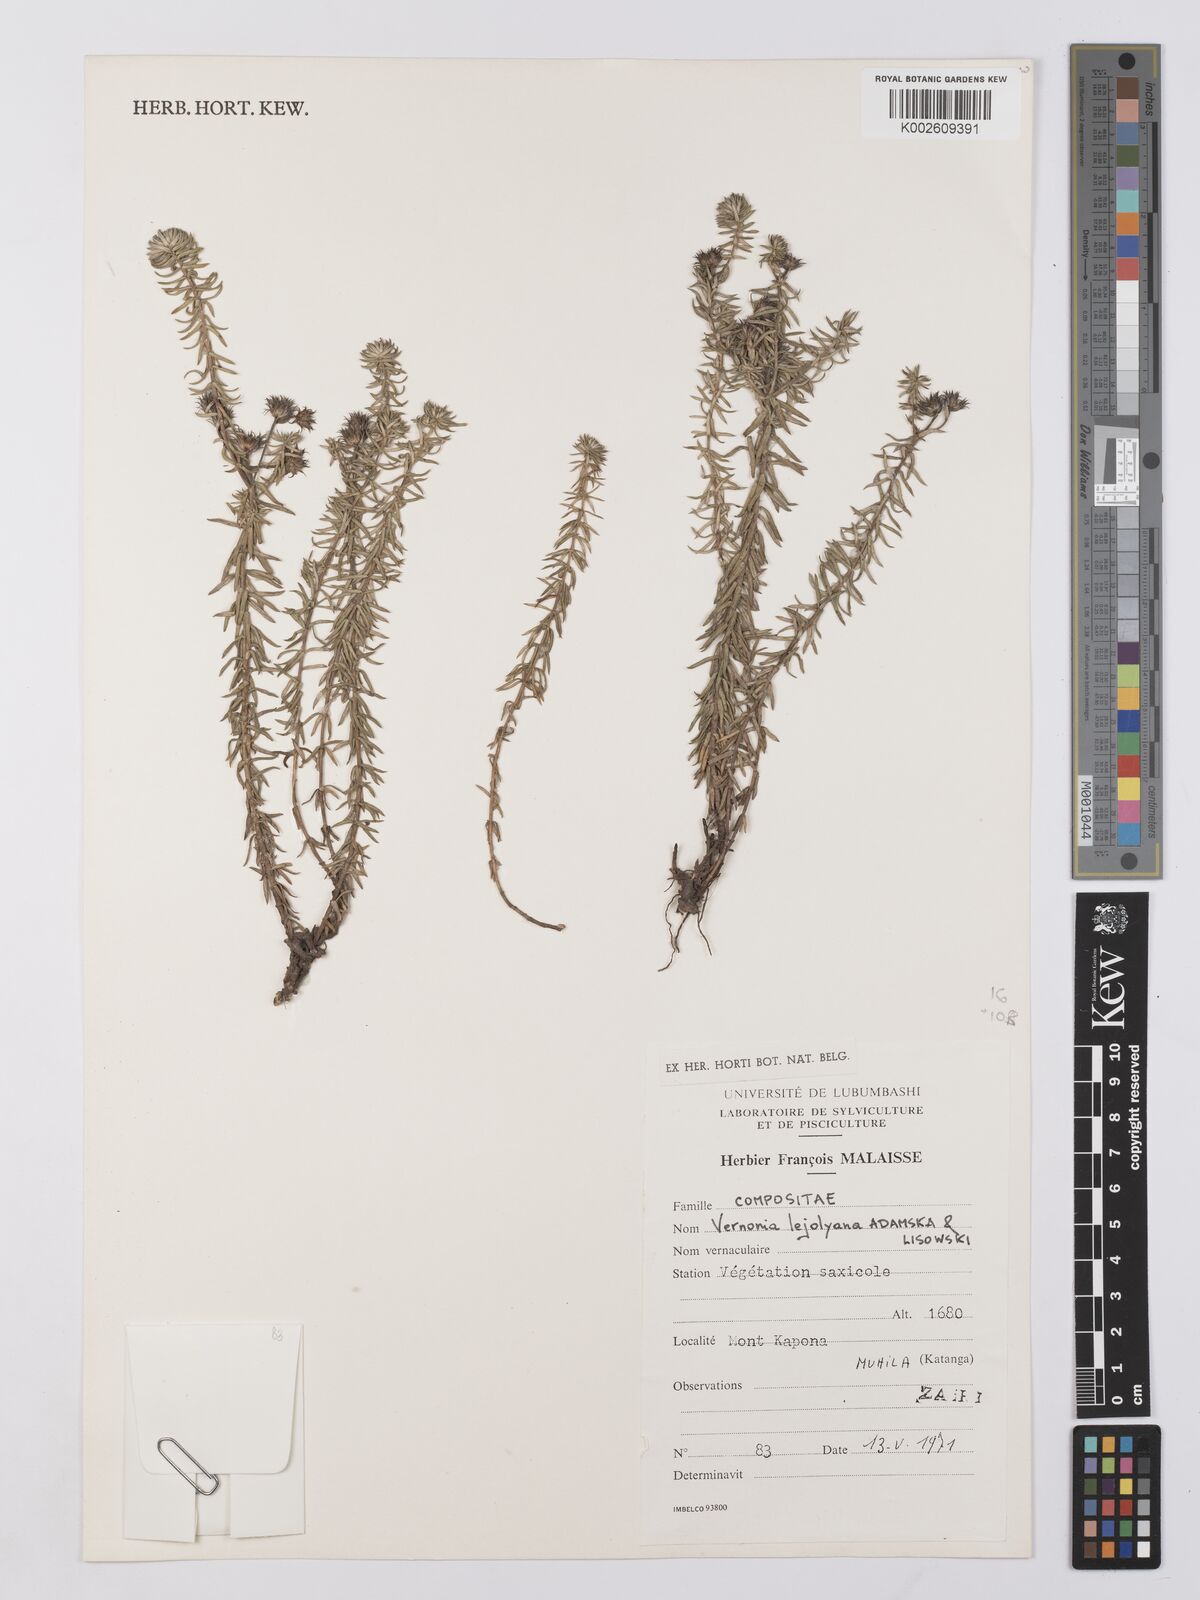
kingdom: Plantae
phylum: Tracheophyta
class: Magnoliopsida
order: Asterales
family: Asteraceae
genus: Ageratinastrum
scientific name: Ageratinastrum lejolyanum
